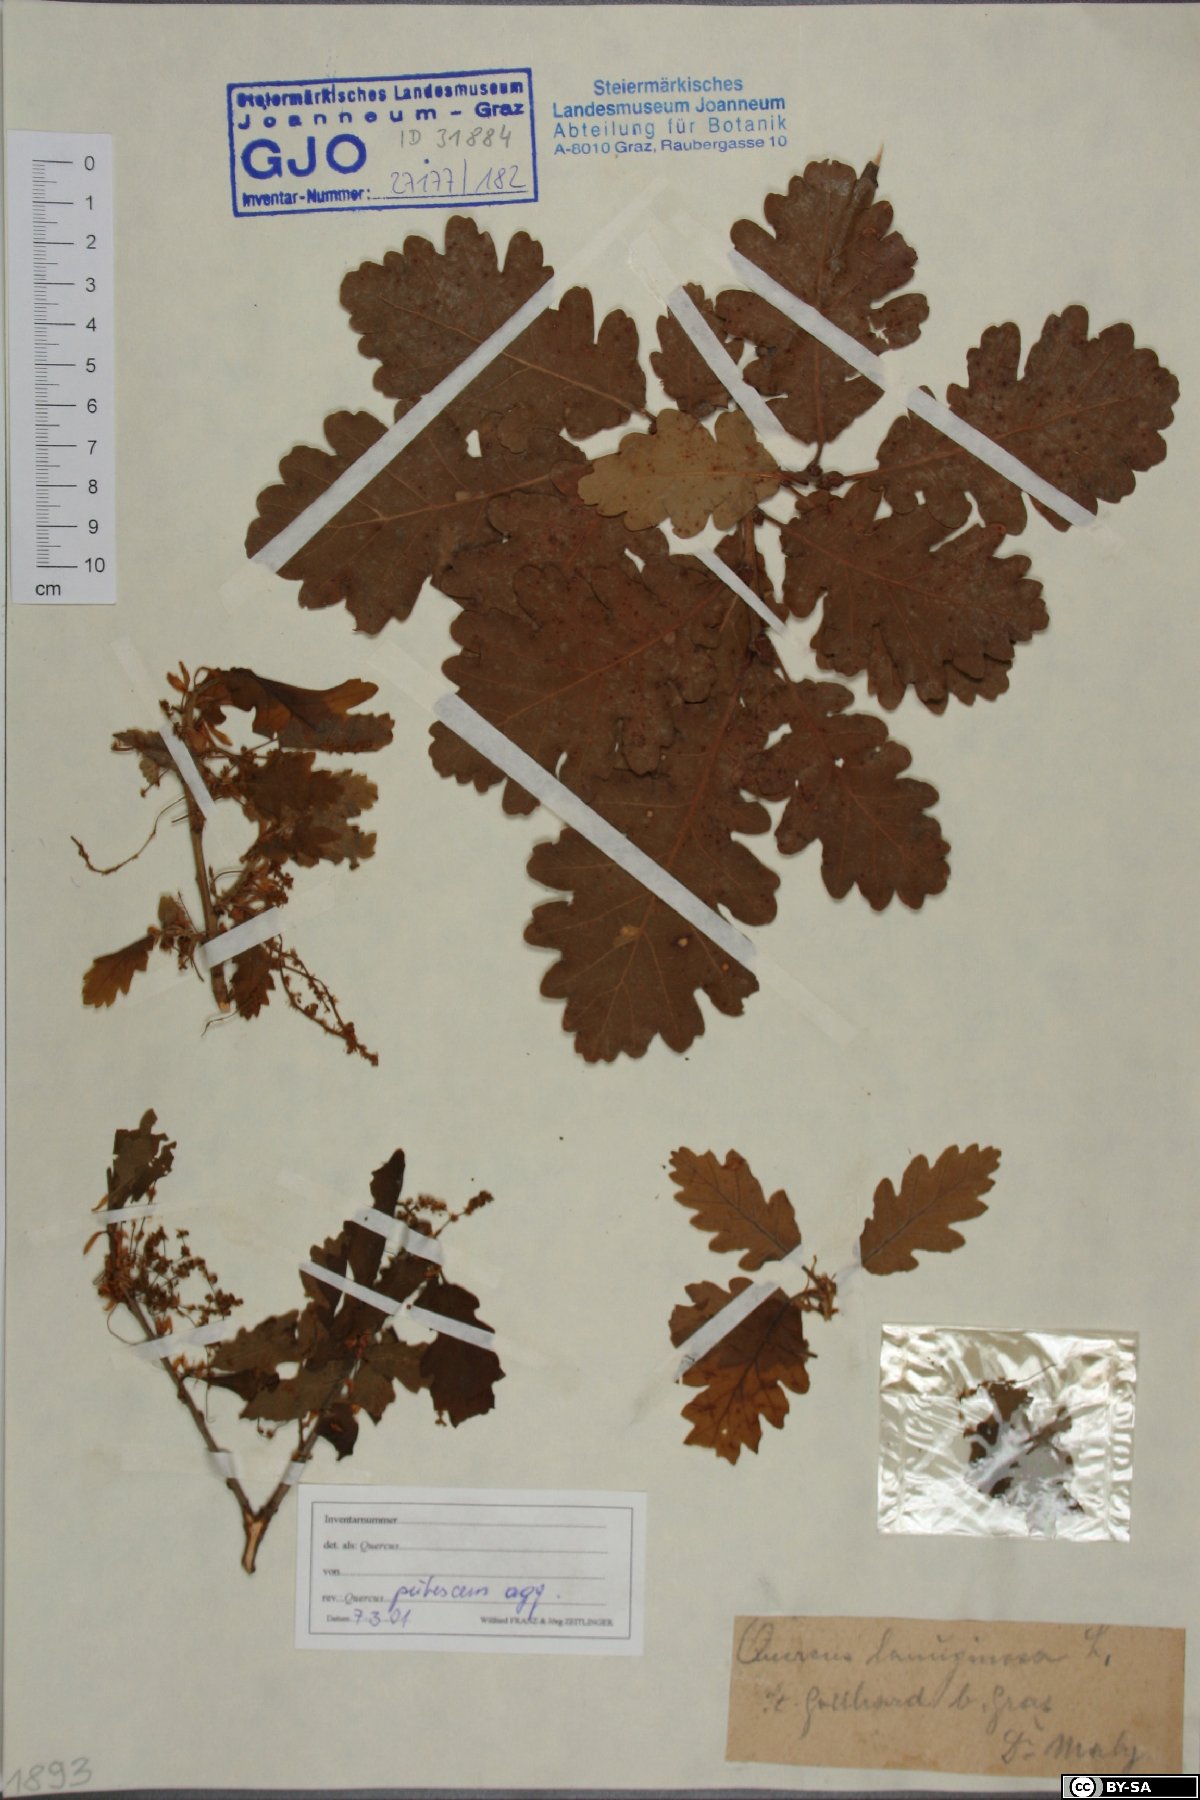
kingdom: Plantae
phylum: Tracheophyta
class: Magnoliopsida
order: Fagales
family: Fagaceae
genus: Quercus
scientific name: Quercus pubescens
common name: Downy oak
